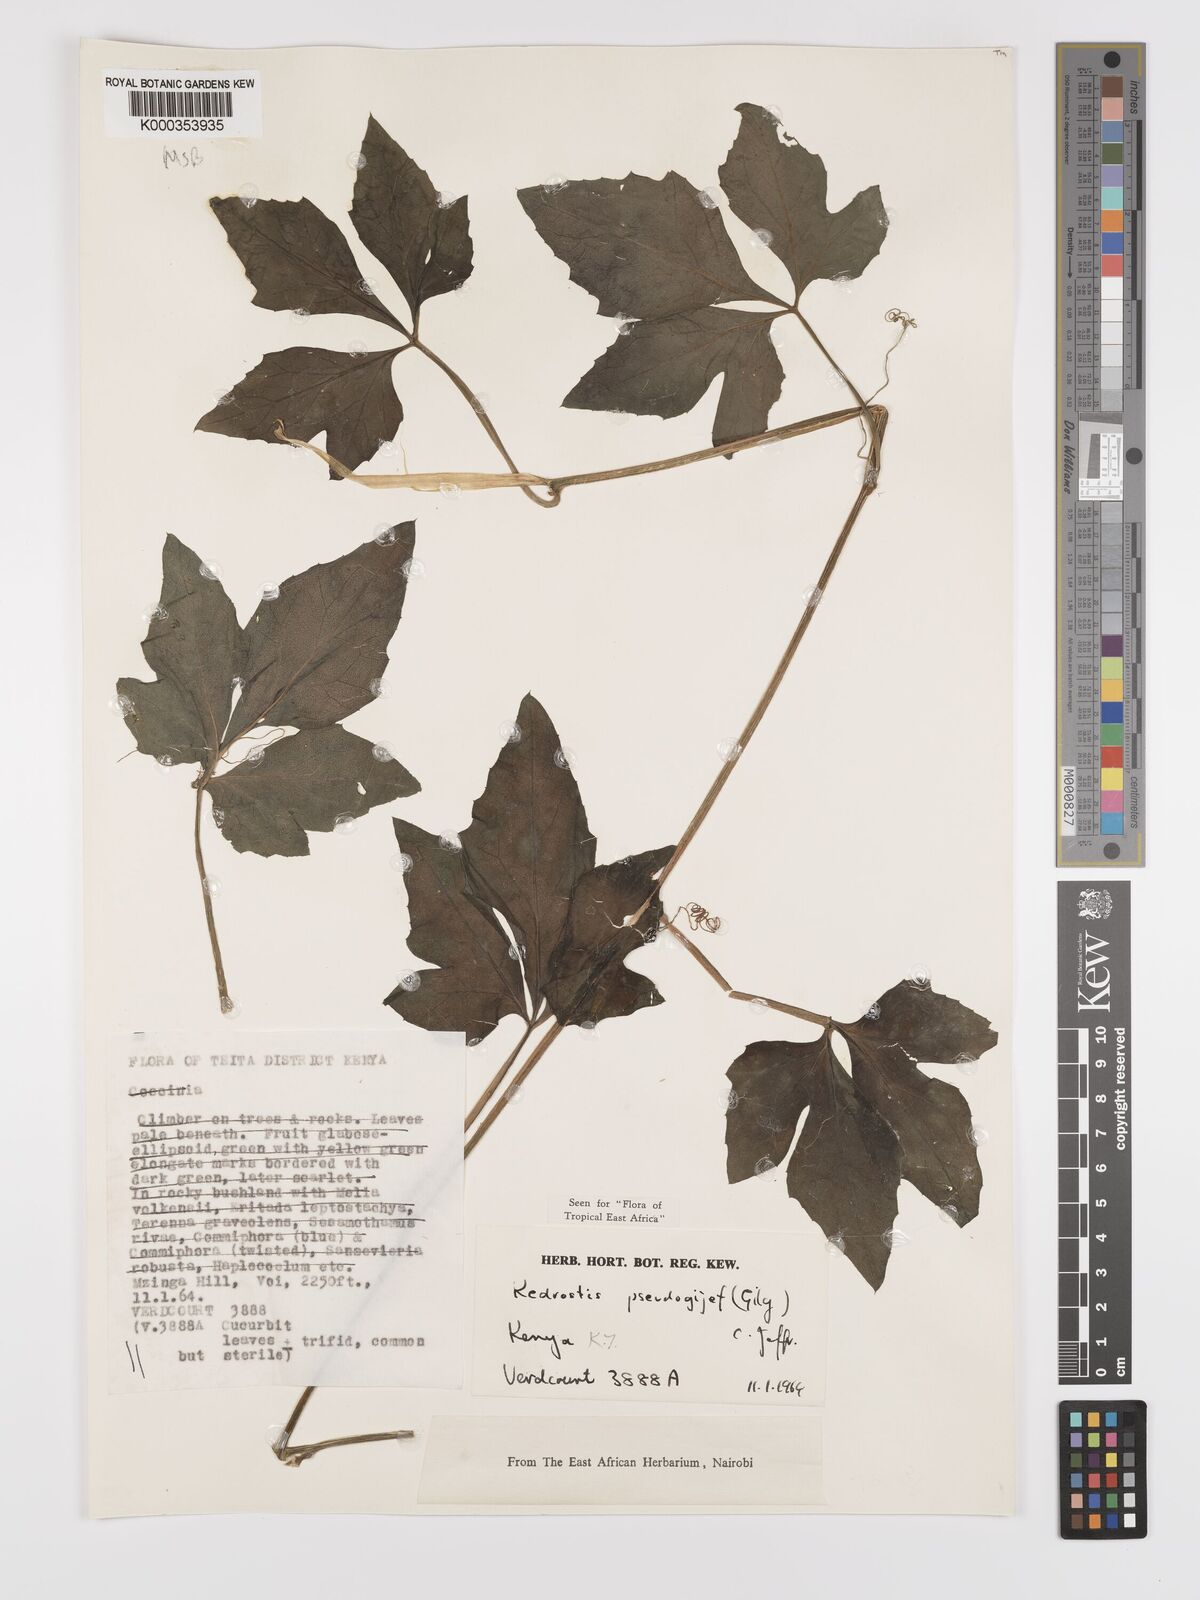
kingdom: Plantae
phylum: Tracheophyta
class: Magnoliopsida
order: Cucurbitales
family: Cucurbitaceae
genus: Kedrostis
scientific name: Kedrostis pseudogijef
